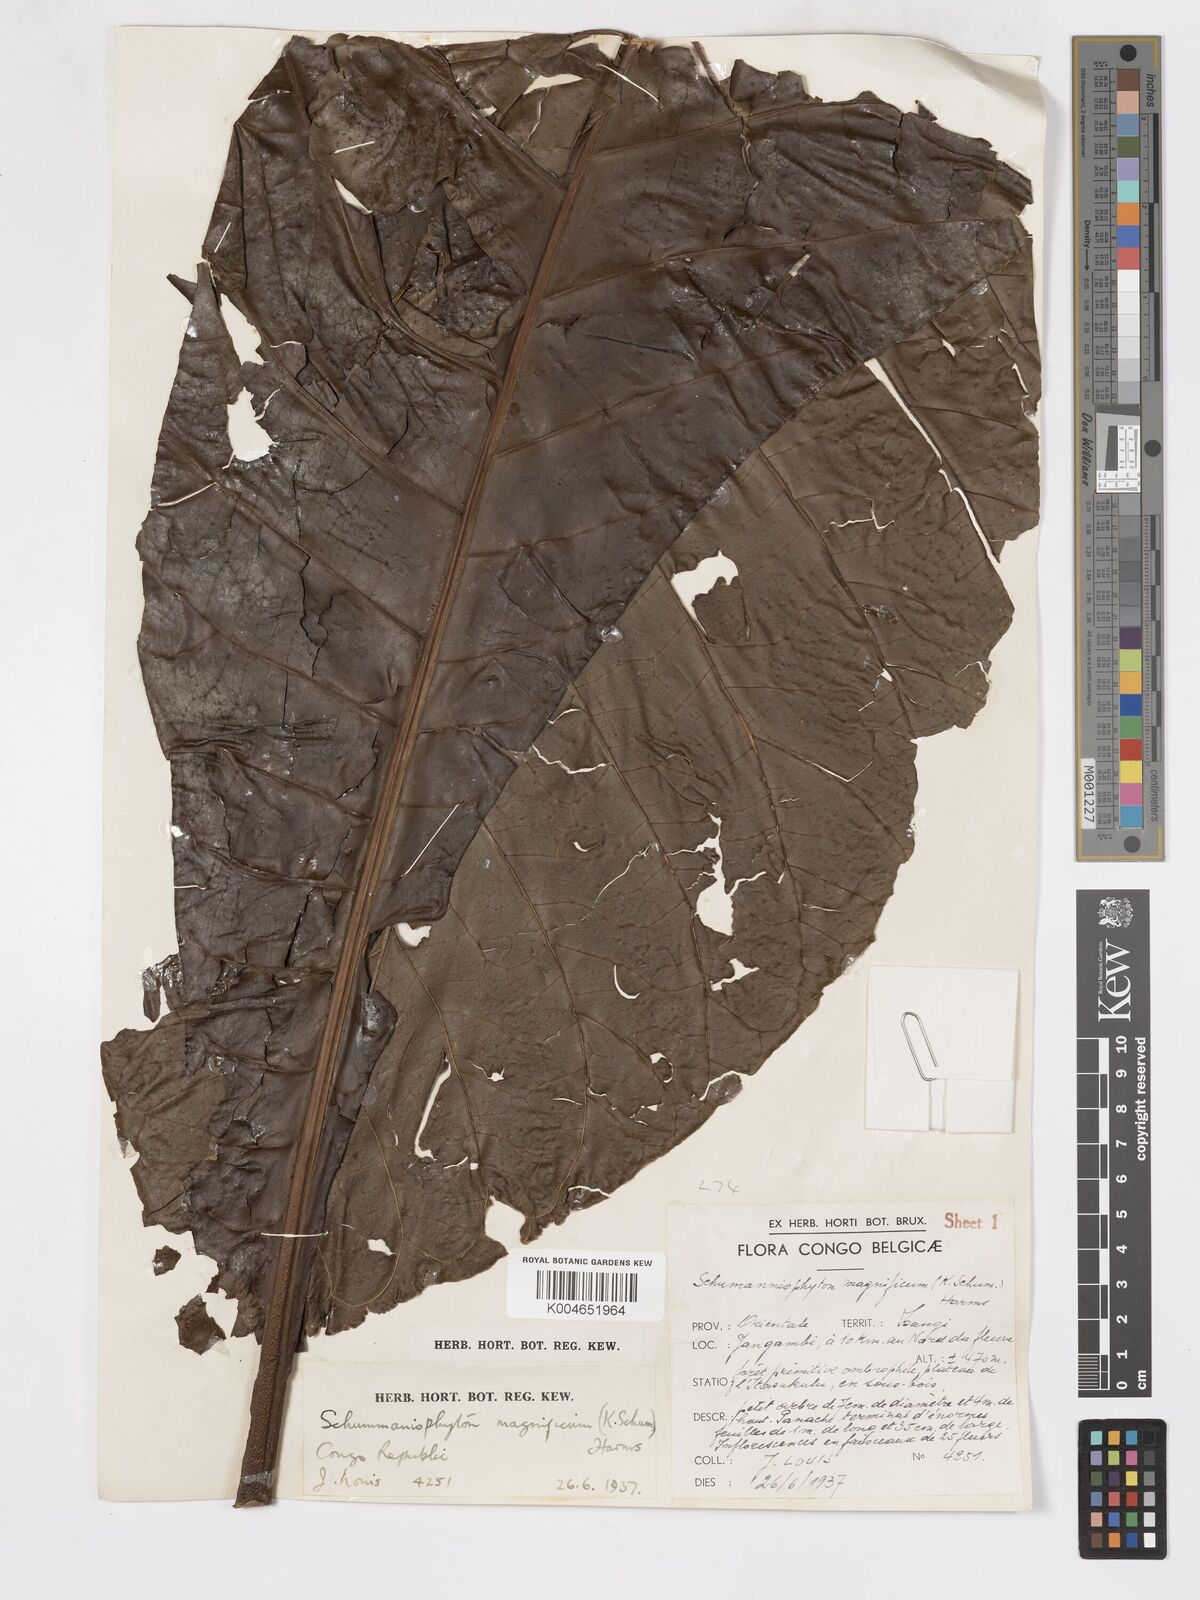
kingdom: Plantae
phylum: Tracheophyta
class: Magnoliopsida
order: Gentianales
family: Rubiaceae
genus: Schumanniophyton
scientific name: Schumanniophyton magnificum
